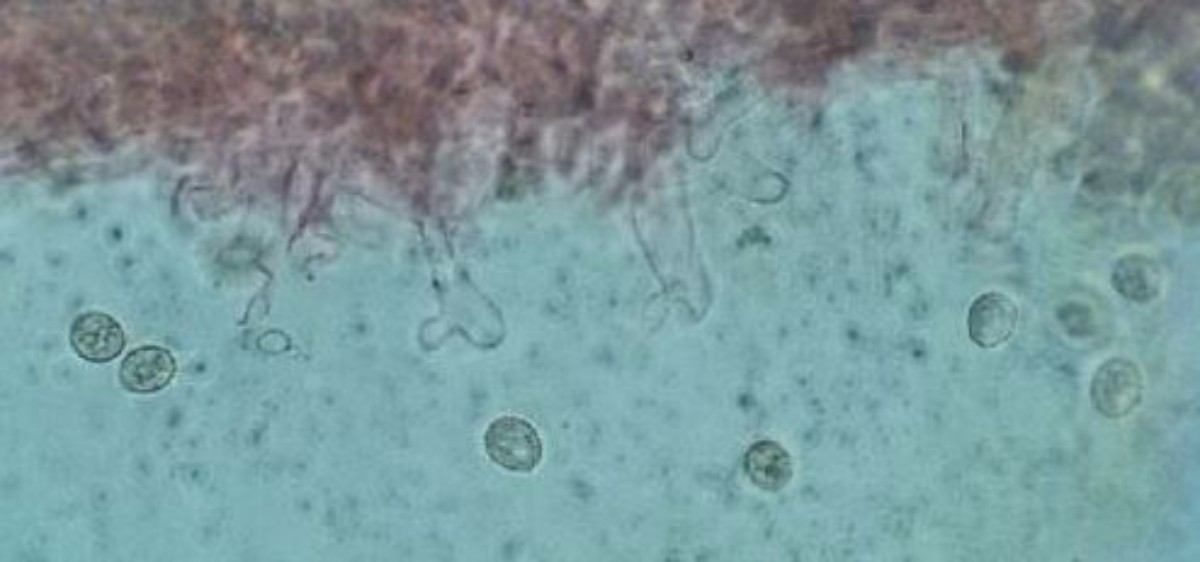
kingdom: Fungi
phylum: Basidiomycota
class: Agaricomycetes
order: Agaricales
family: Crepidotaceae
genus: Crepidotus
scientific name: Crepidotus cesatii
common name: almindelig muslingesvamp
